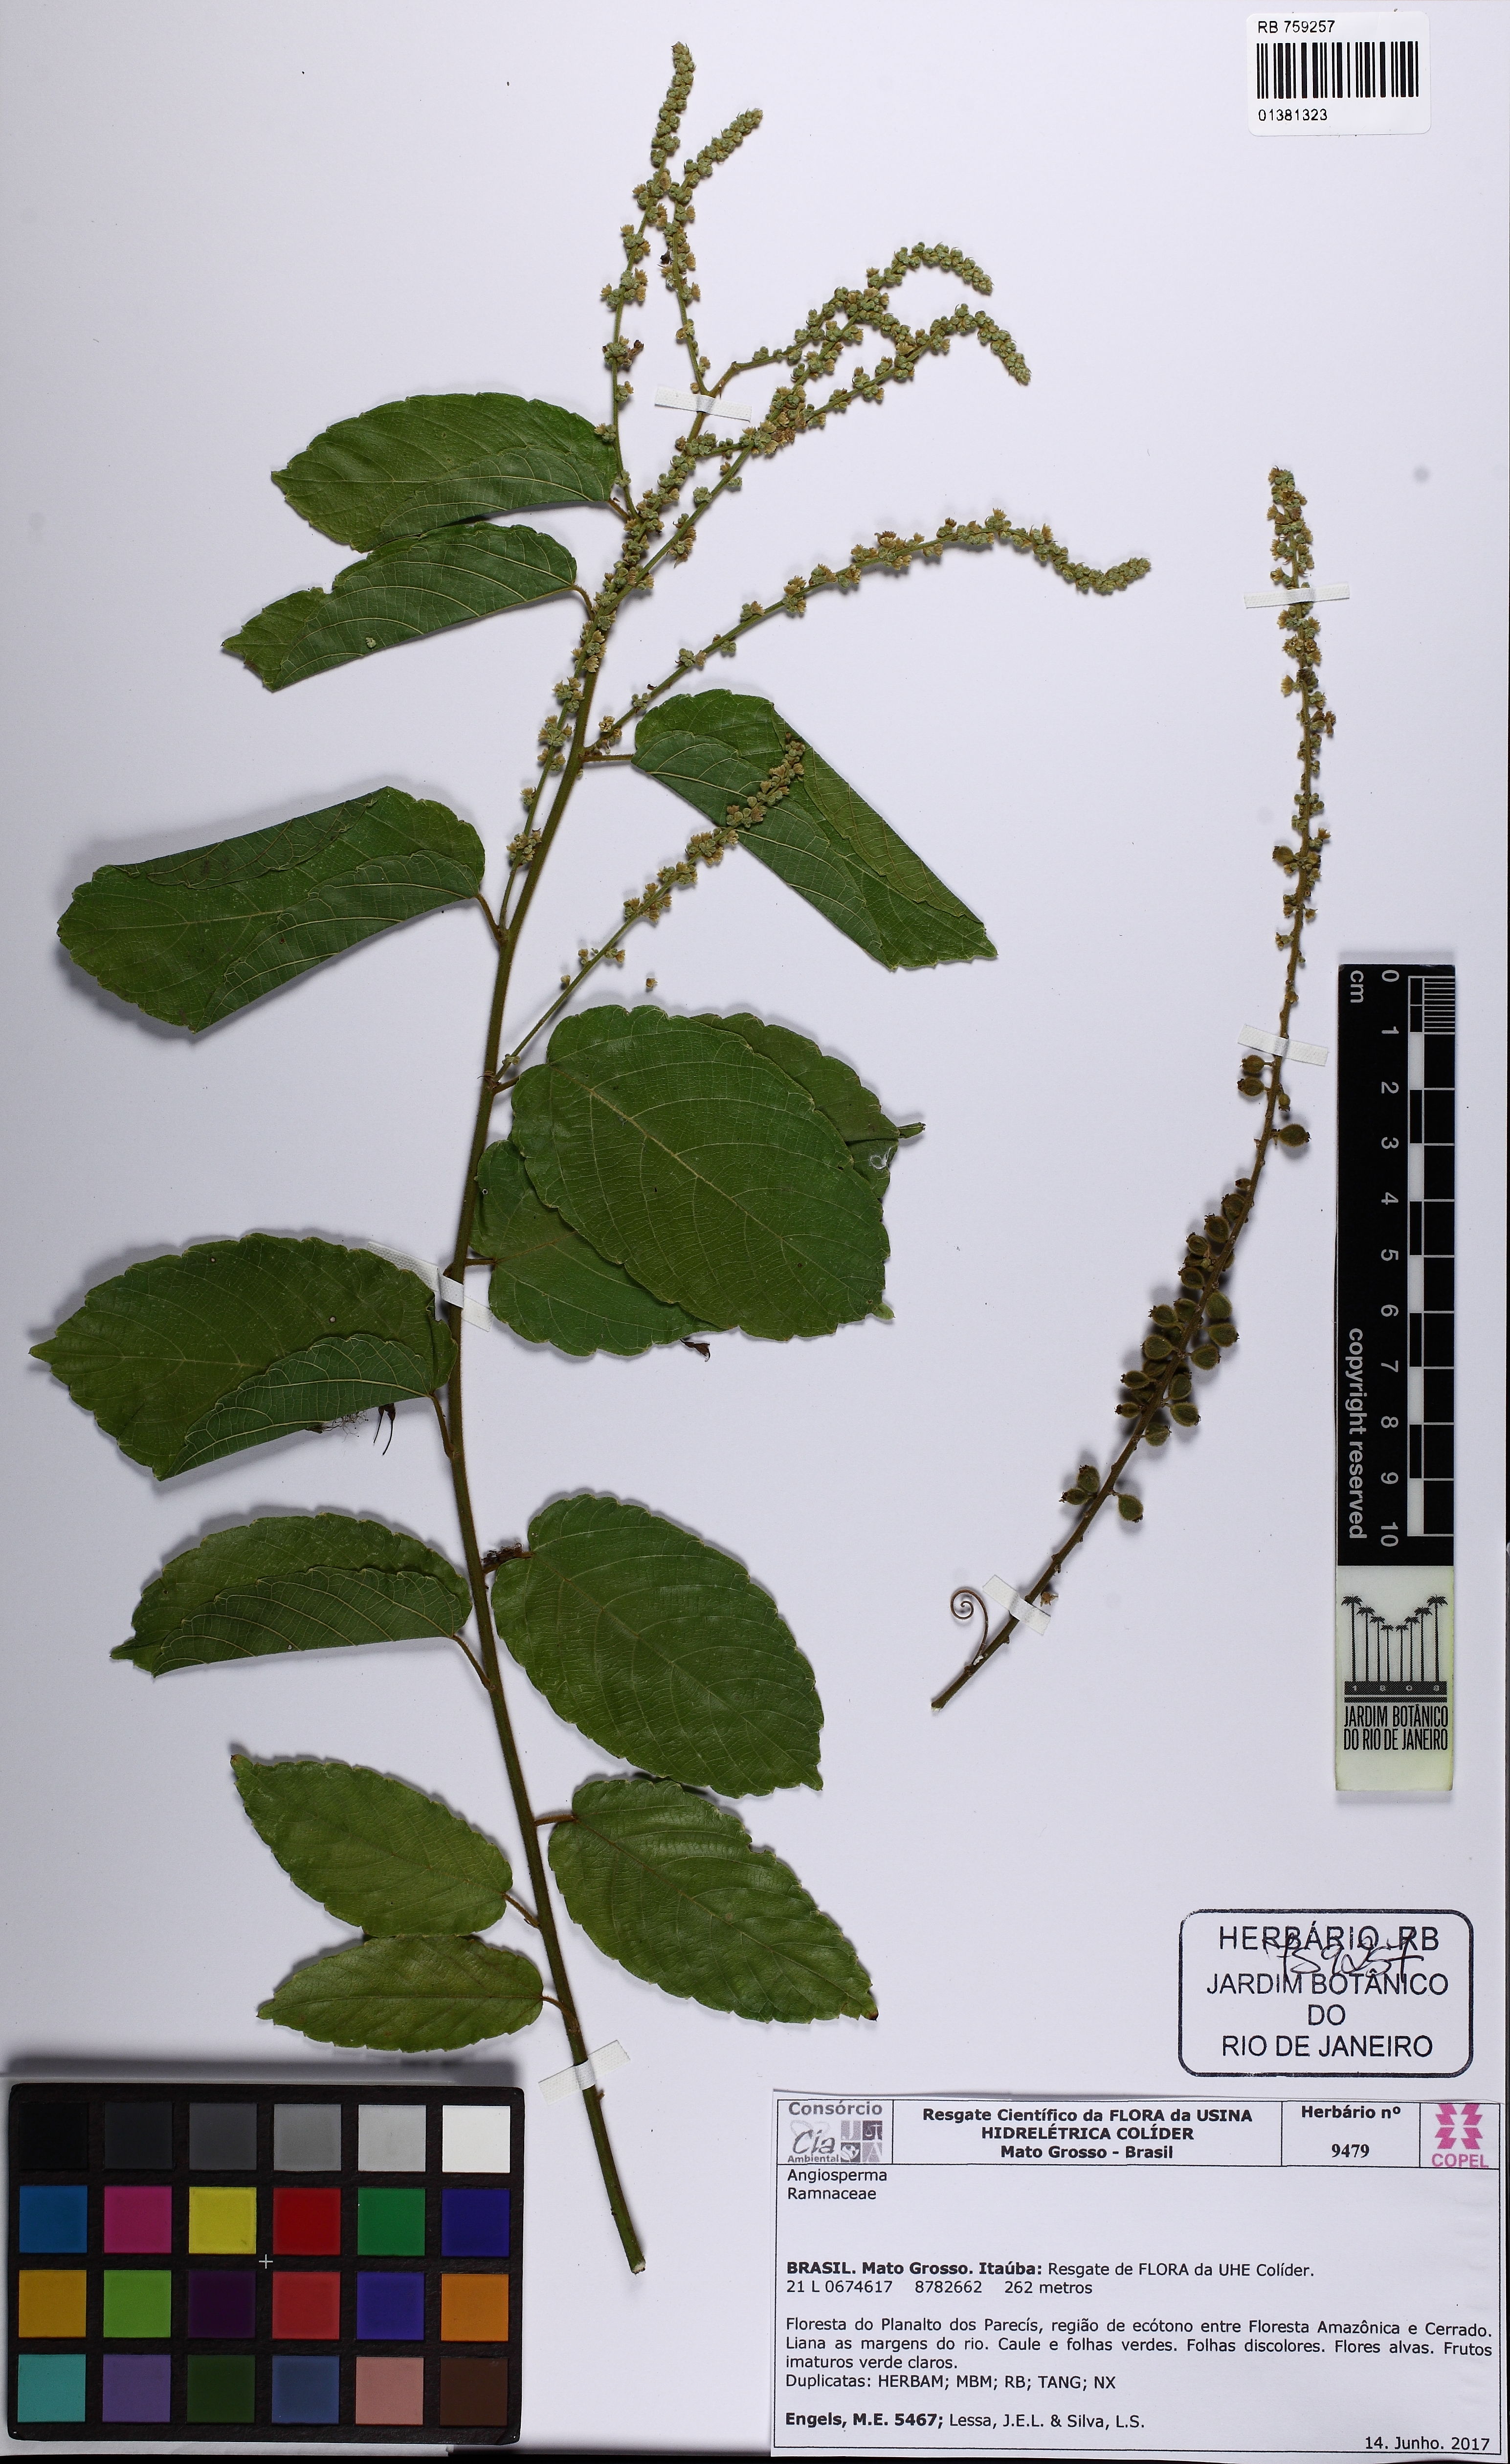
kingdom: Plantae
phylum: Tracheophyta
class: Magnoliopsida
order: Rosales
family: Rhamnaceae
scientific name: Rhamnaceae
